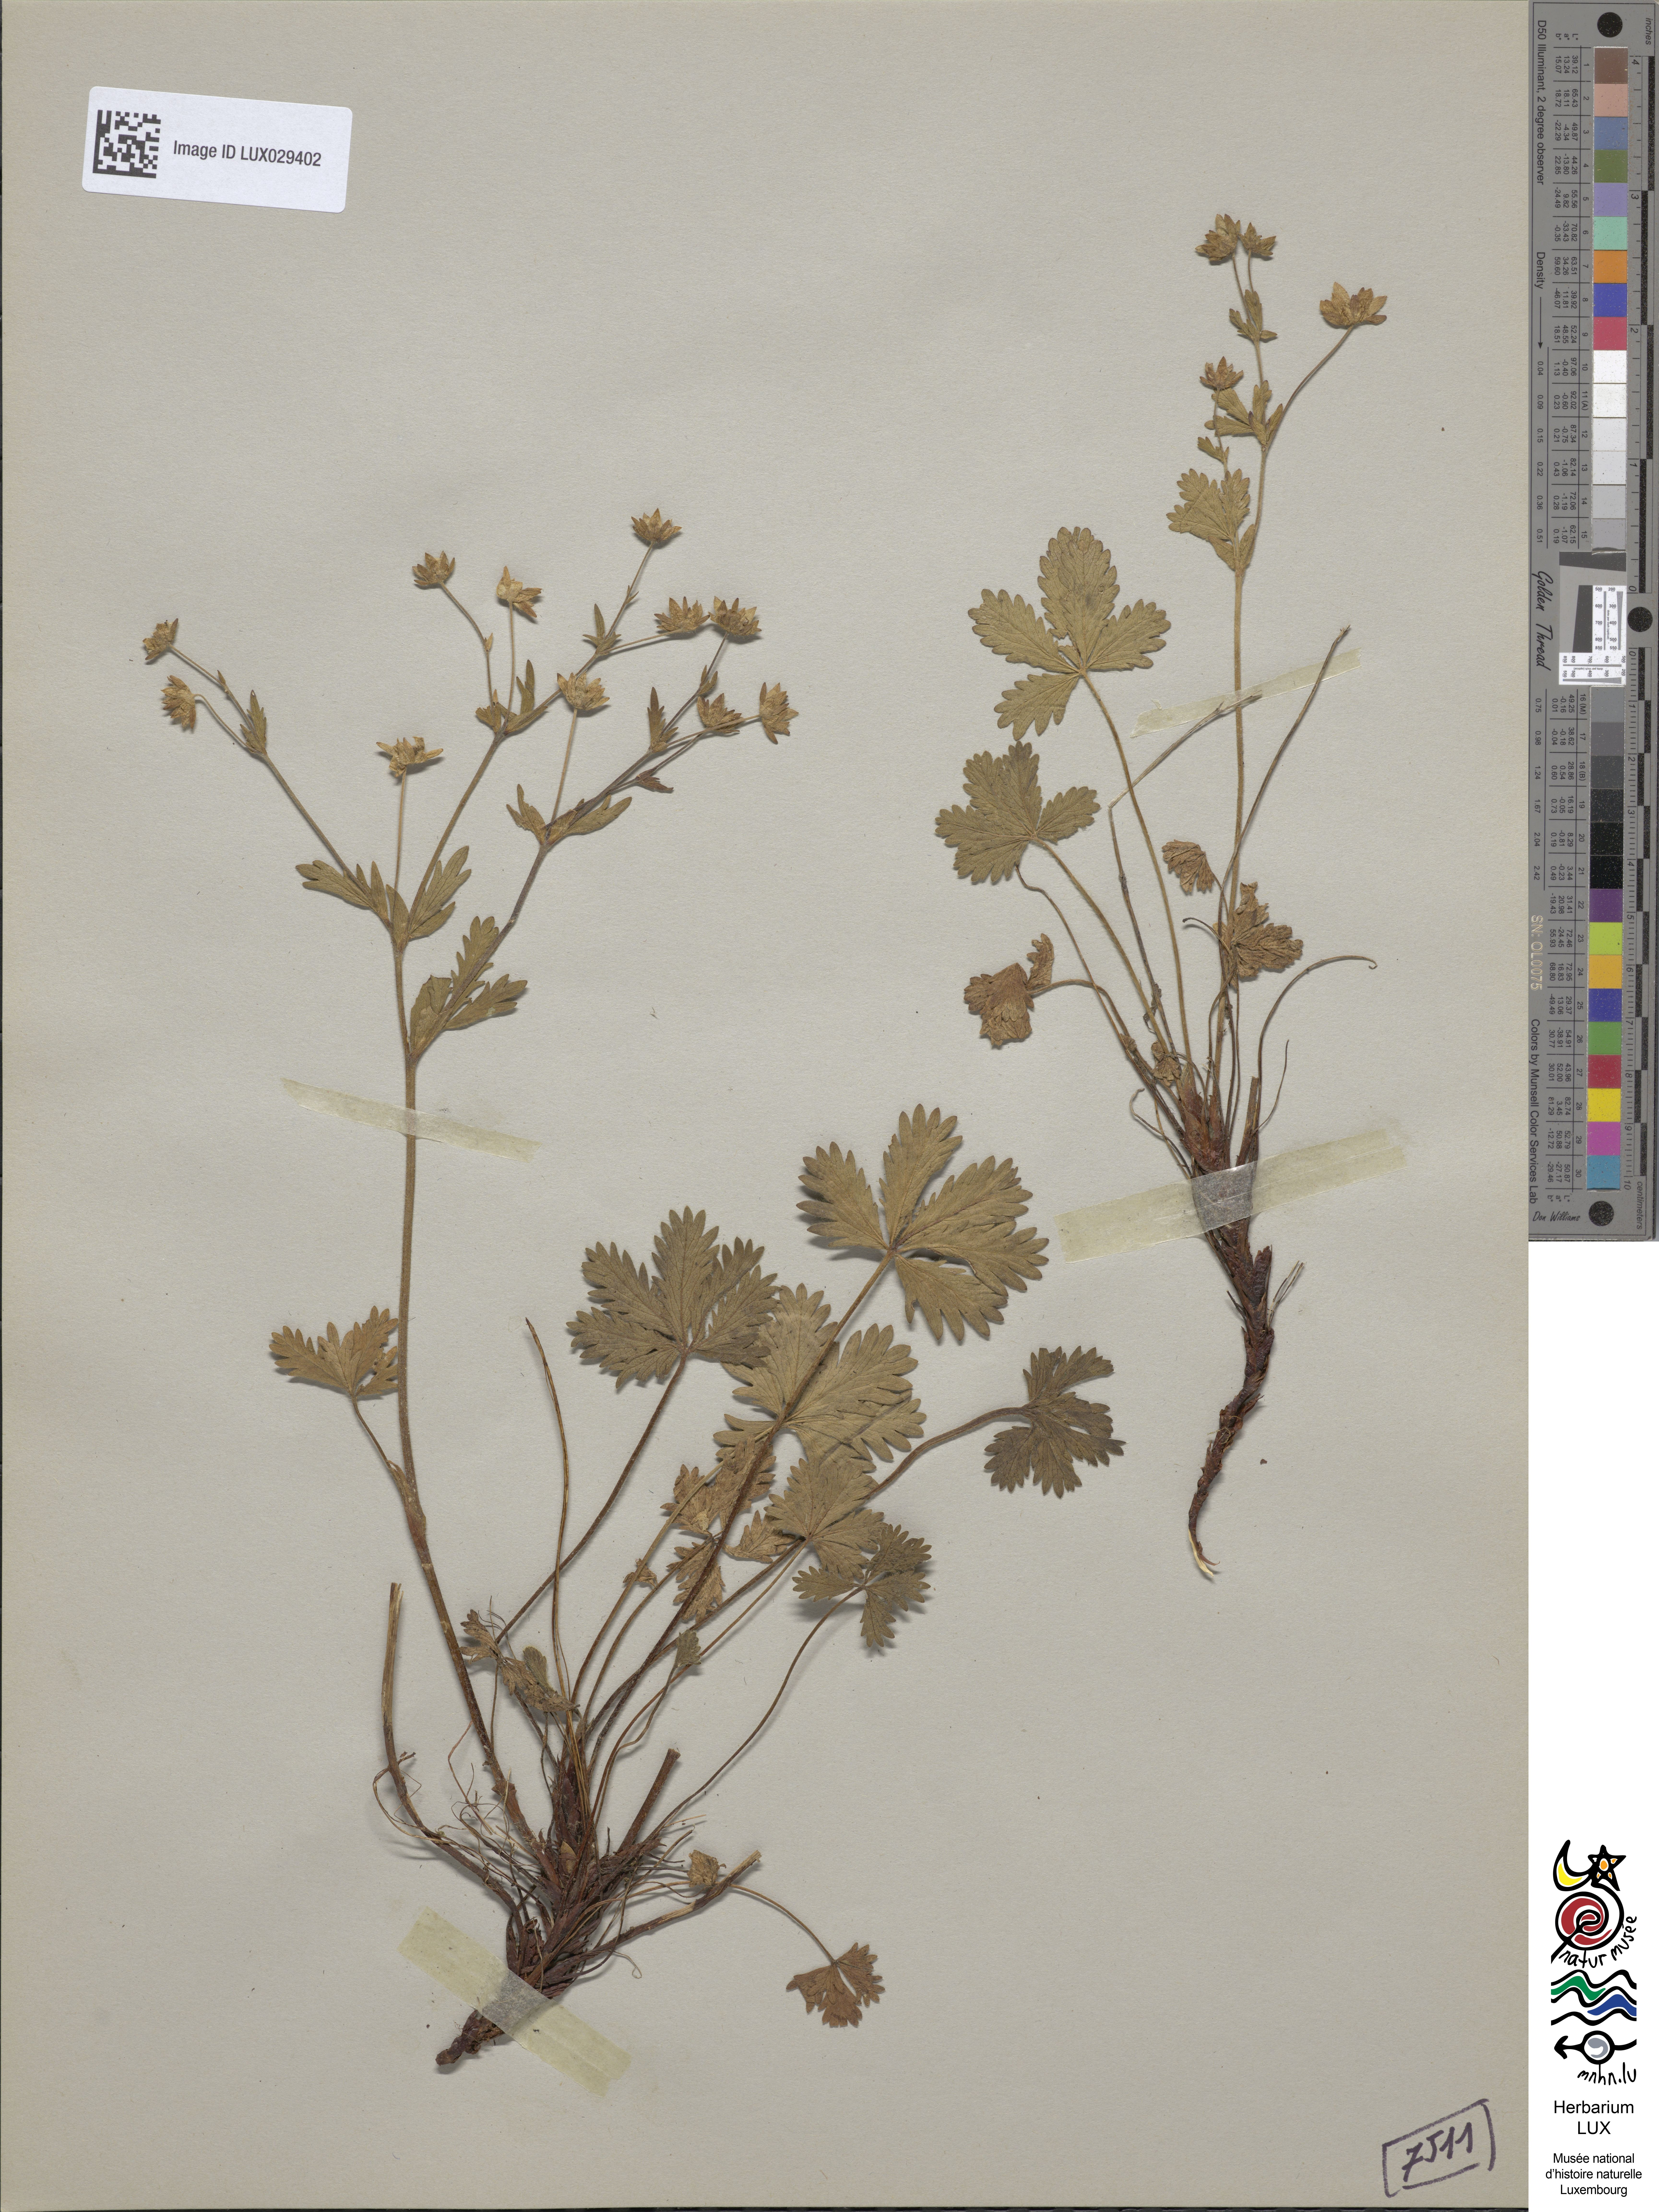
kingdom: Plantae
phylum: Tracheophyta
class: Magnoliopsida
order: Rosales
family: Rosaceae
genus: Potentilla
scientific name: Potentilla crantzii
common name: Alpine cinquefoil
